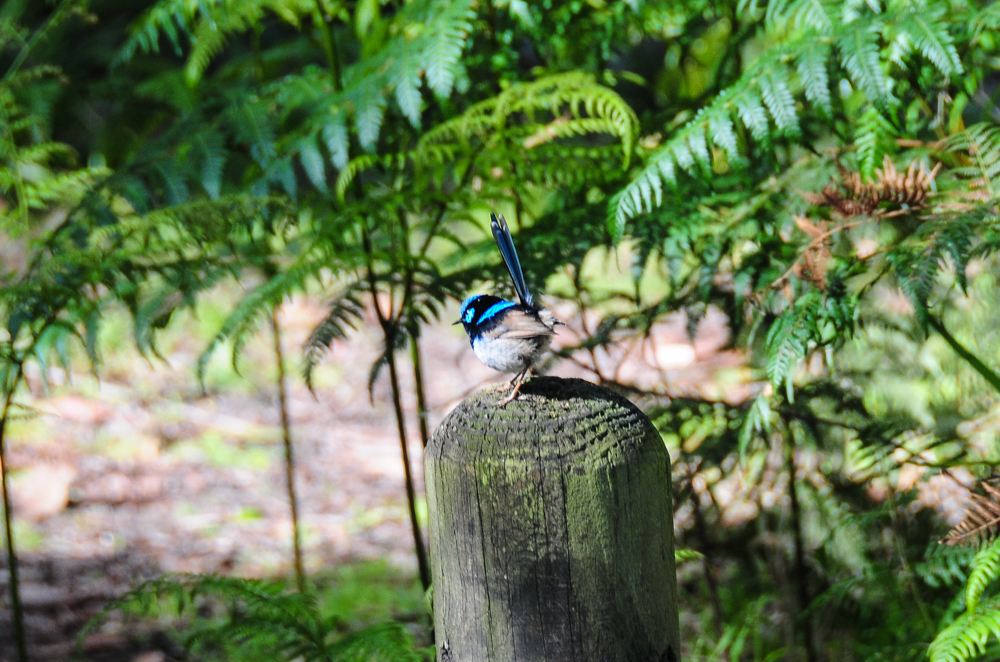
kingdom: Animalia
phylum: Chordata
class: Aves
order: Passeriformes
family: Maluridae
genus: Malurus
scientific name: Malurus cyaneus
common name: Superb fairywren
